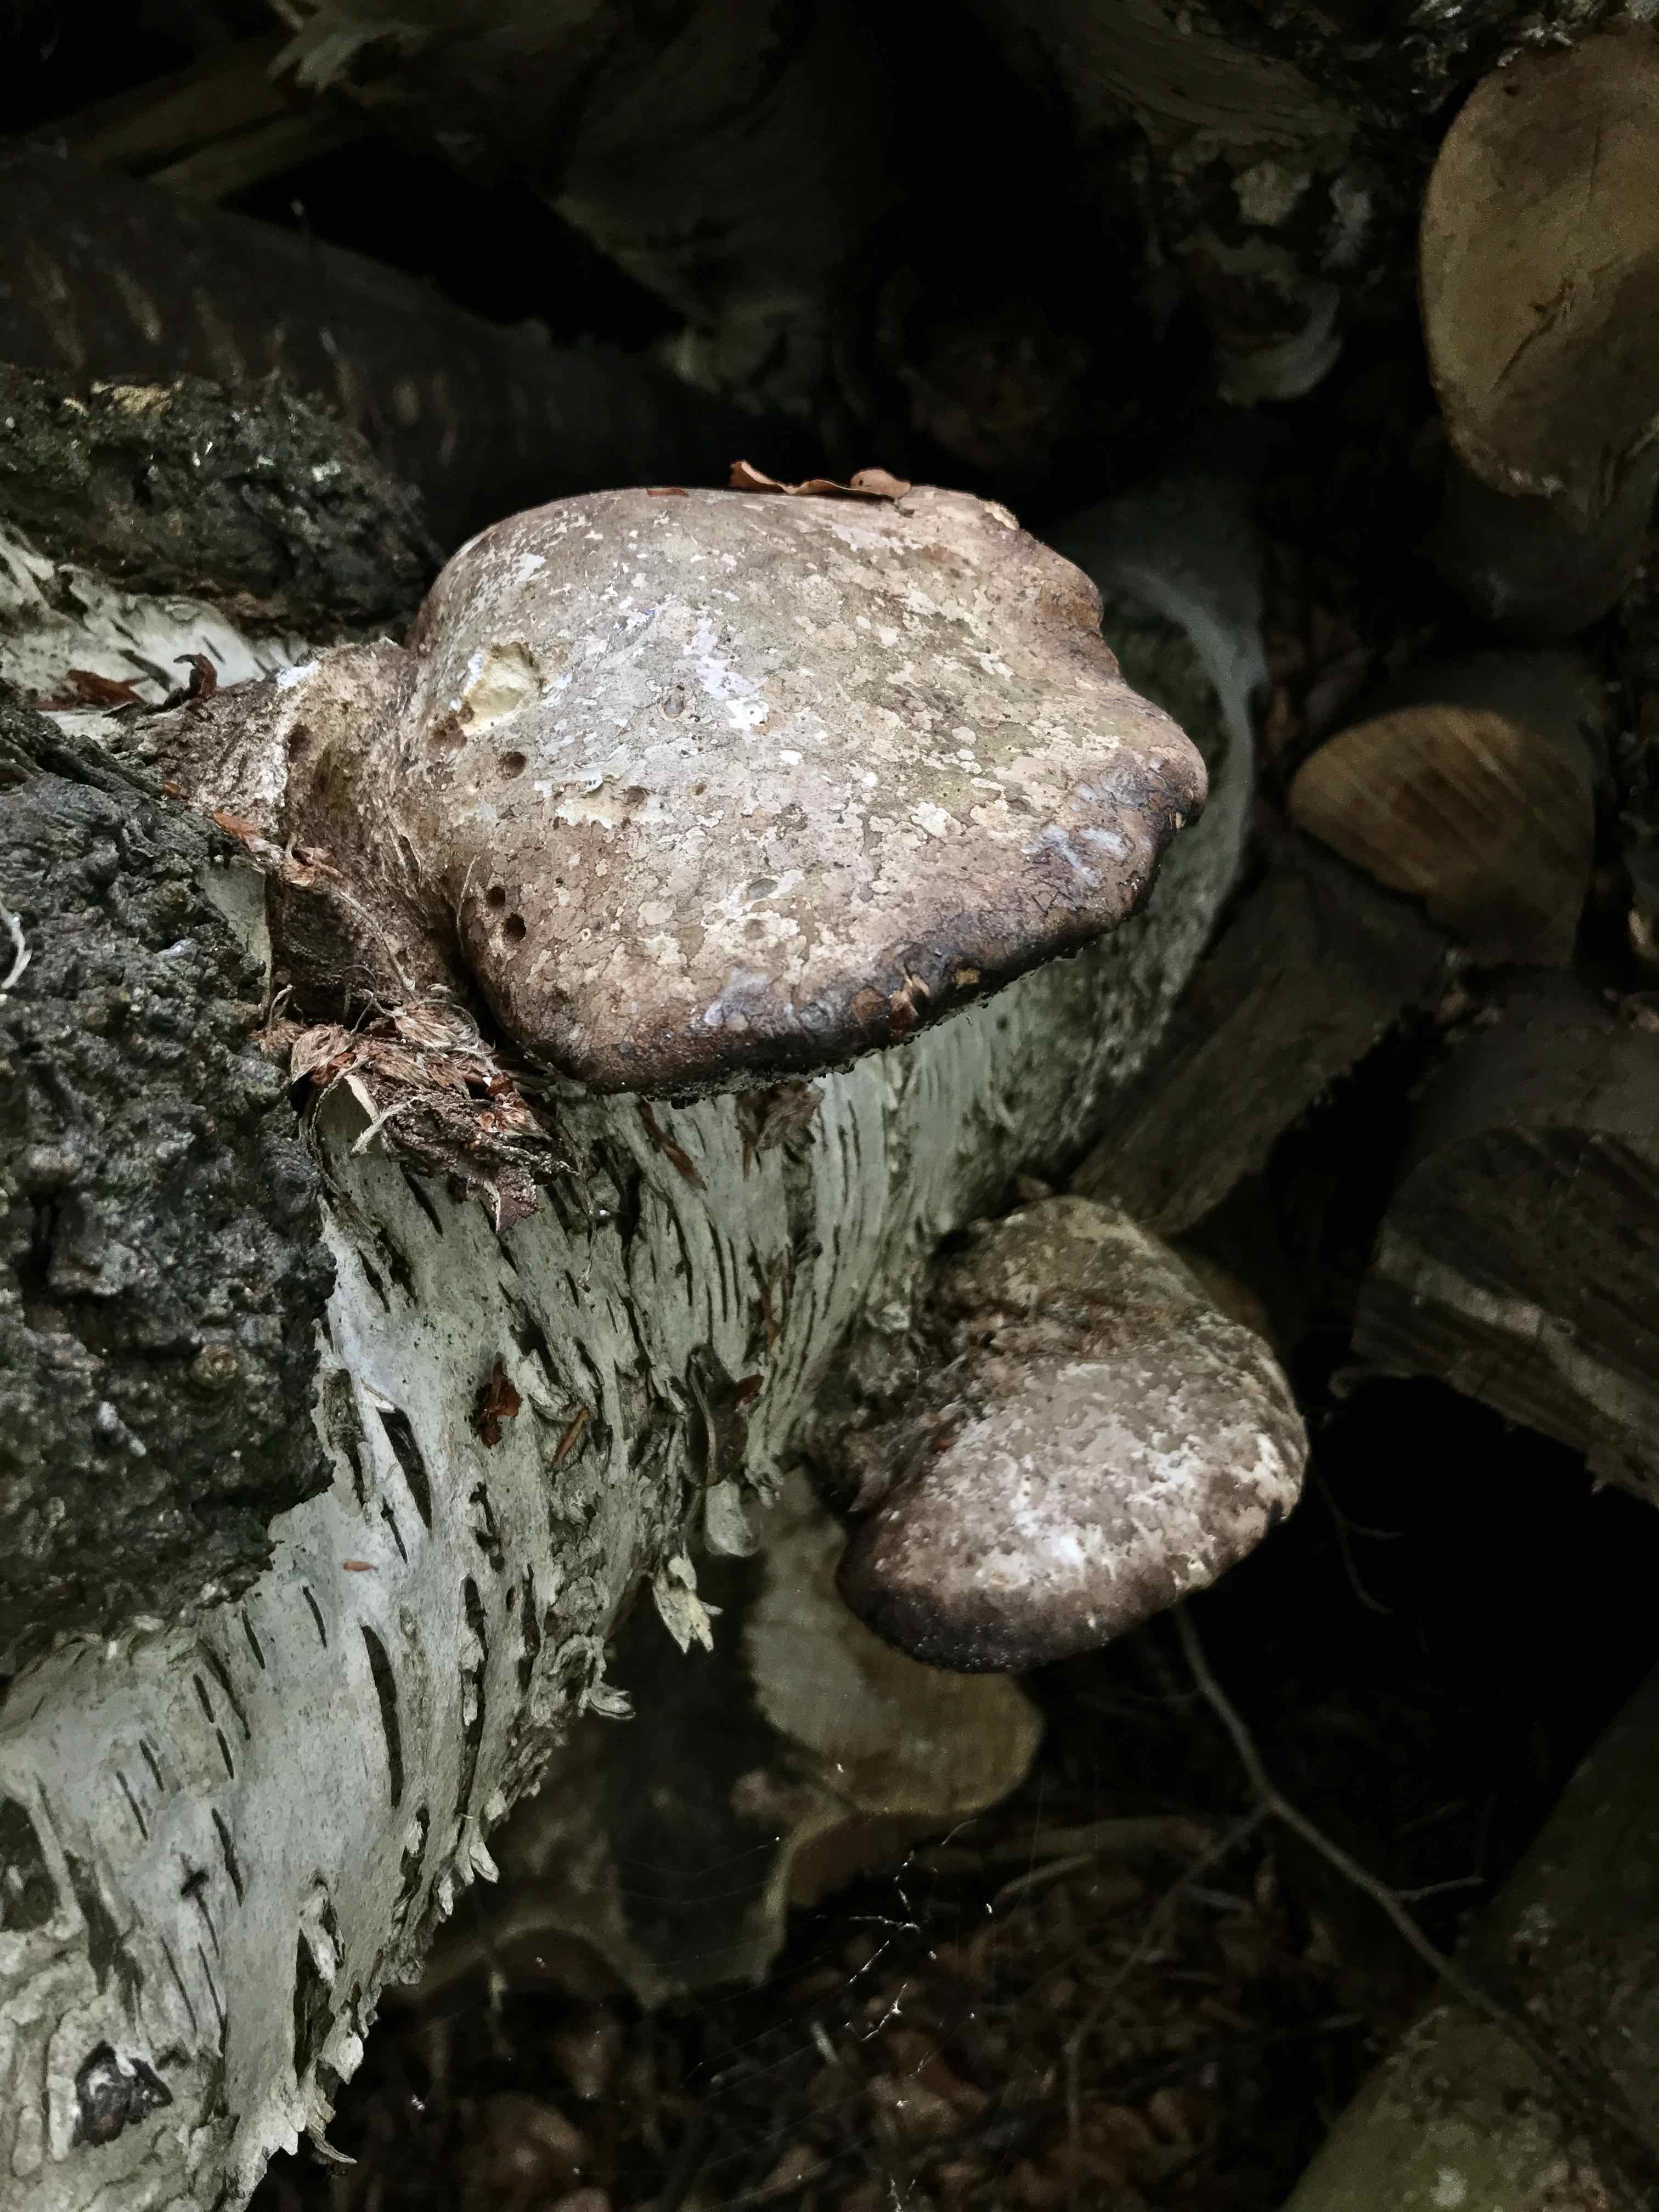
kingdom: Fungi
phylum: Basidiomycota
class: Agaricomycetes
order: Polyporales
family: Fomitopsidaceae
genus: Fomitopsis
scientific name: Fomitopsis betulina
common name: birkeporesvamp
